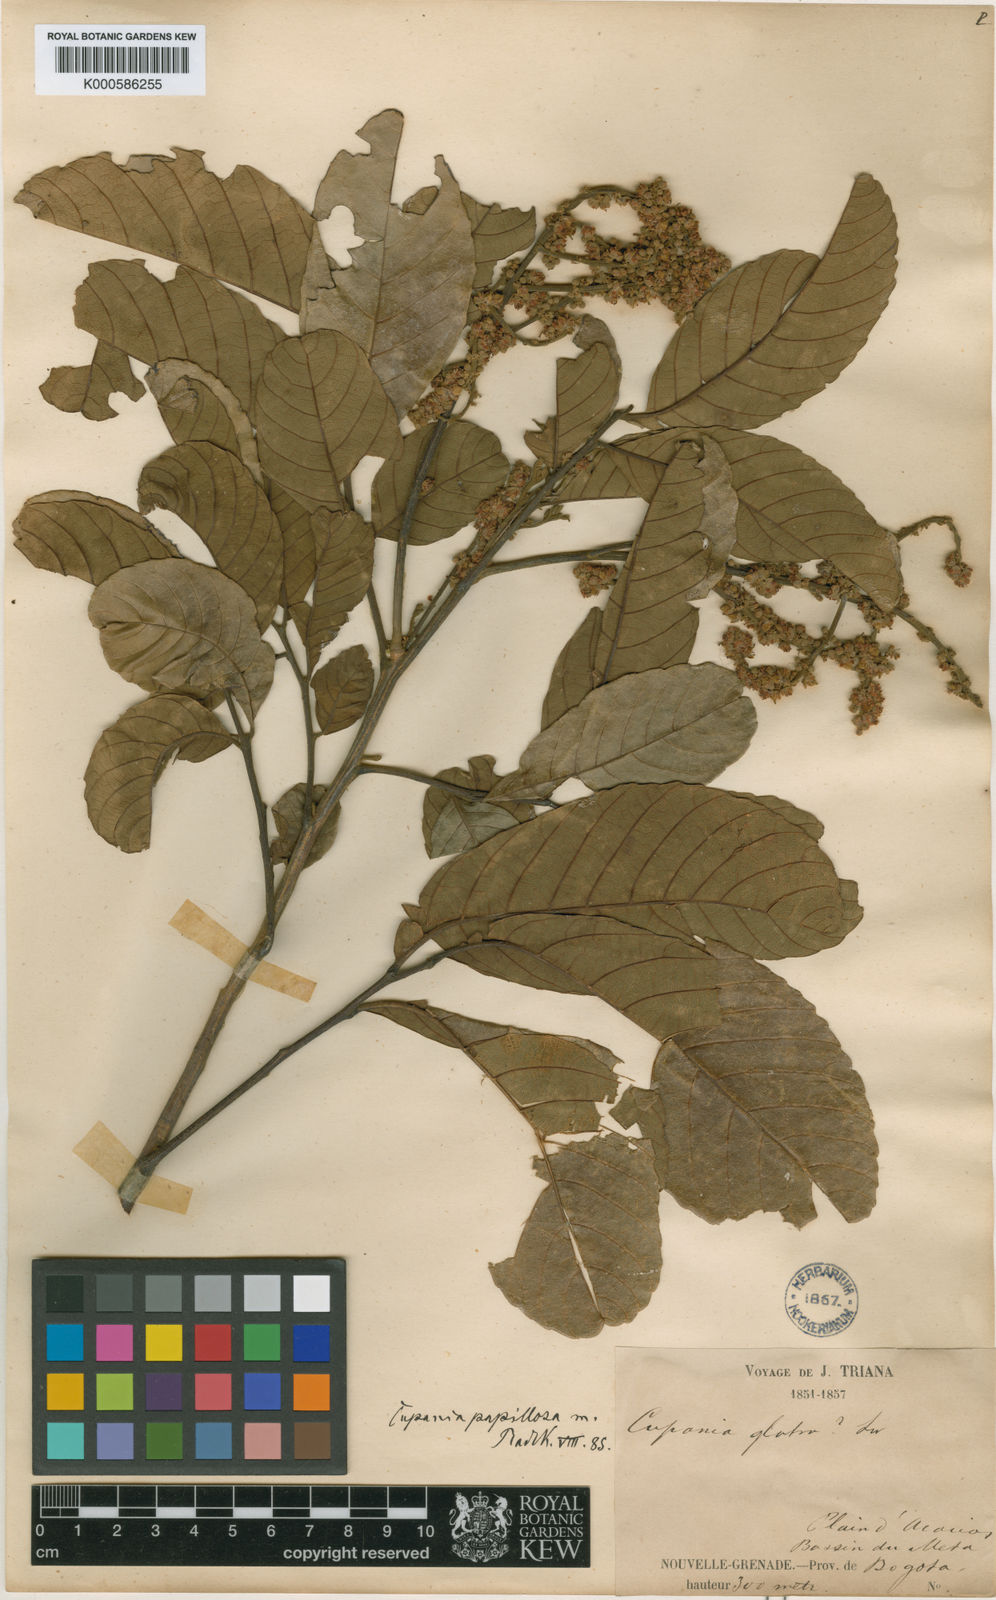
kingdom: Plantae
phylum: Tracheophyta
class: Magnoliopsida
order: Sapindales
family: Sapindaceae
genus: Cupania
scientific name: Cupania latifolia
